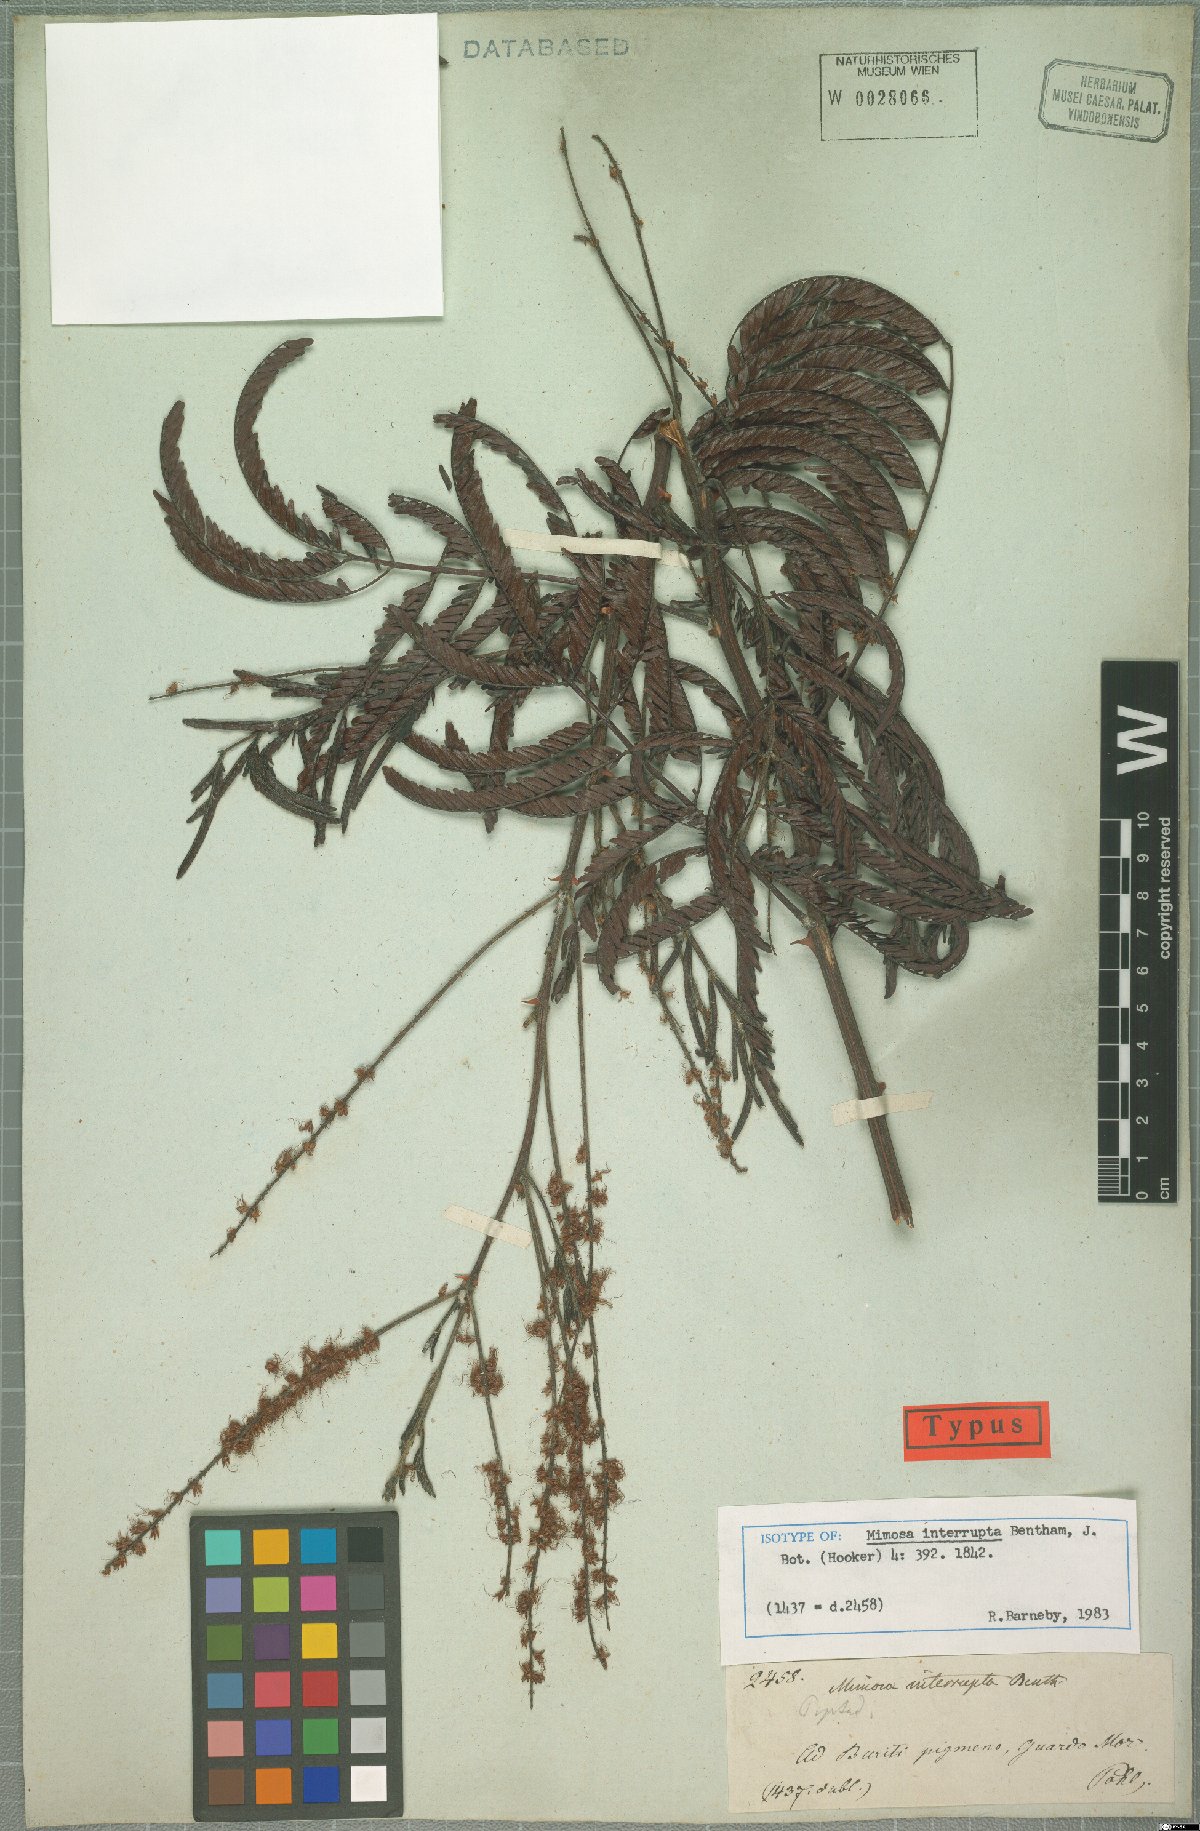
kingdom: Plantae
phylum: Tracheophyta
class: Magnoliopsida
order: Fabales
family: Fabaceae
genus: Mimosa
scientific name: Mimosa interrupta
